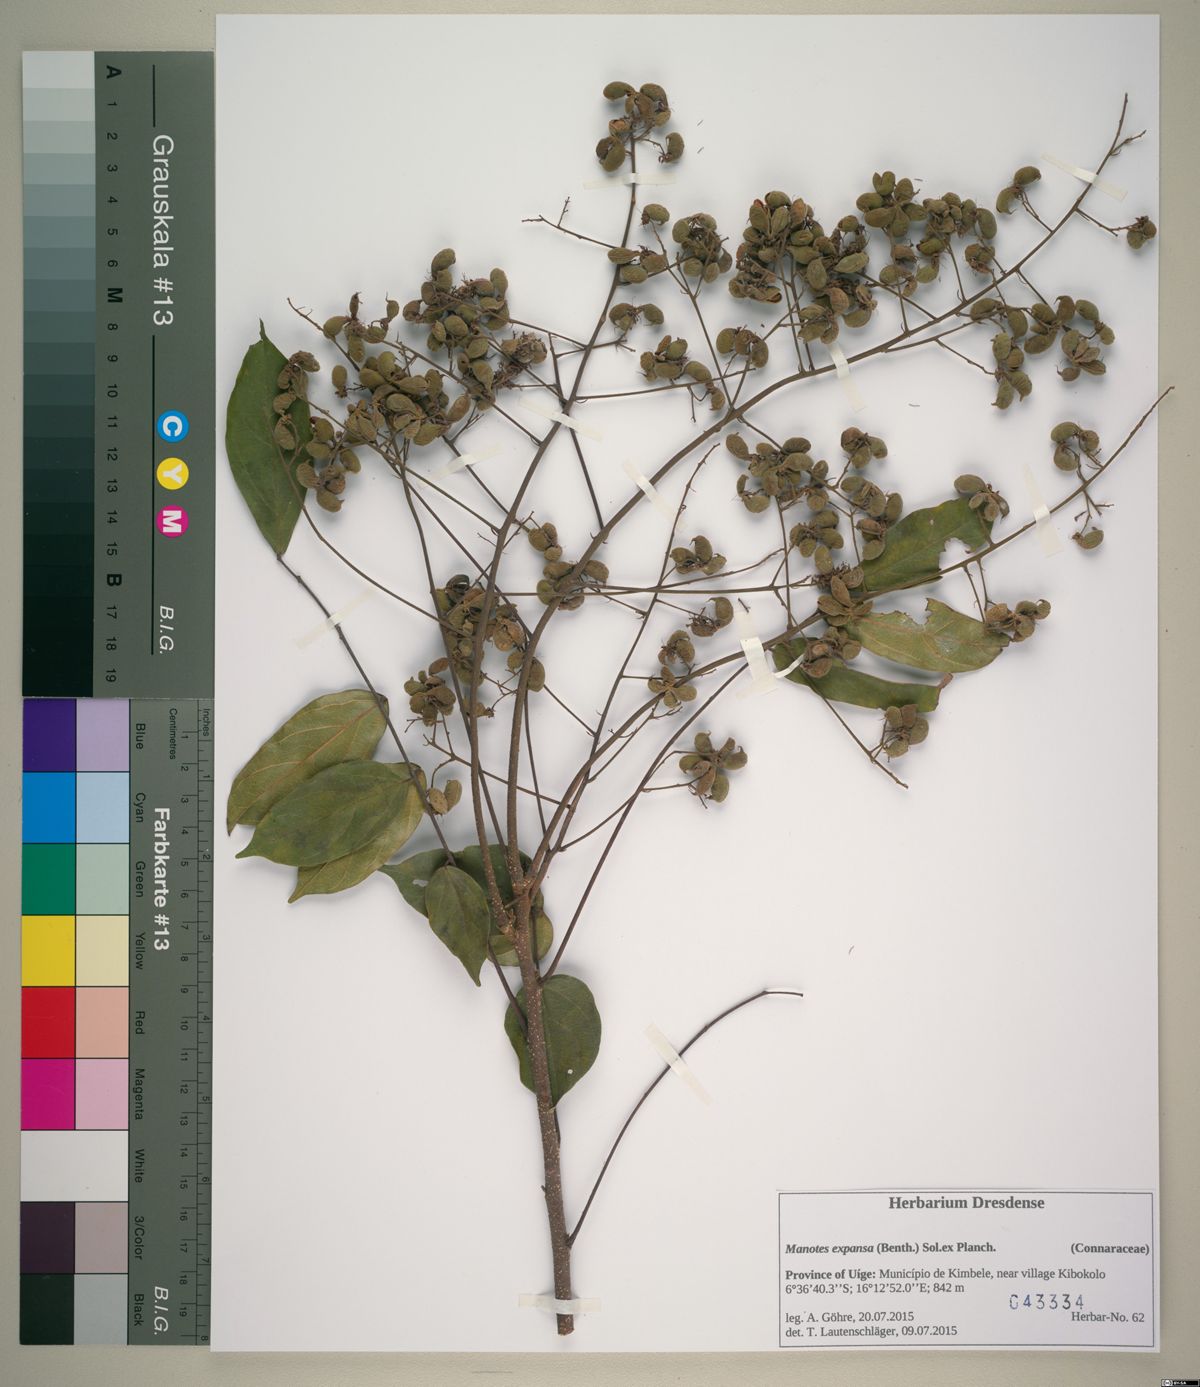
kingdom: Plantae
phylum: Tracheophyta
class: Magnoliopsida
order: Oxalidales
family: Connaraceae
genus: Manotes
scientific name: Manotes expansa
